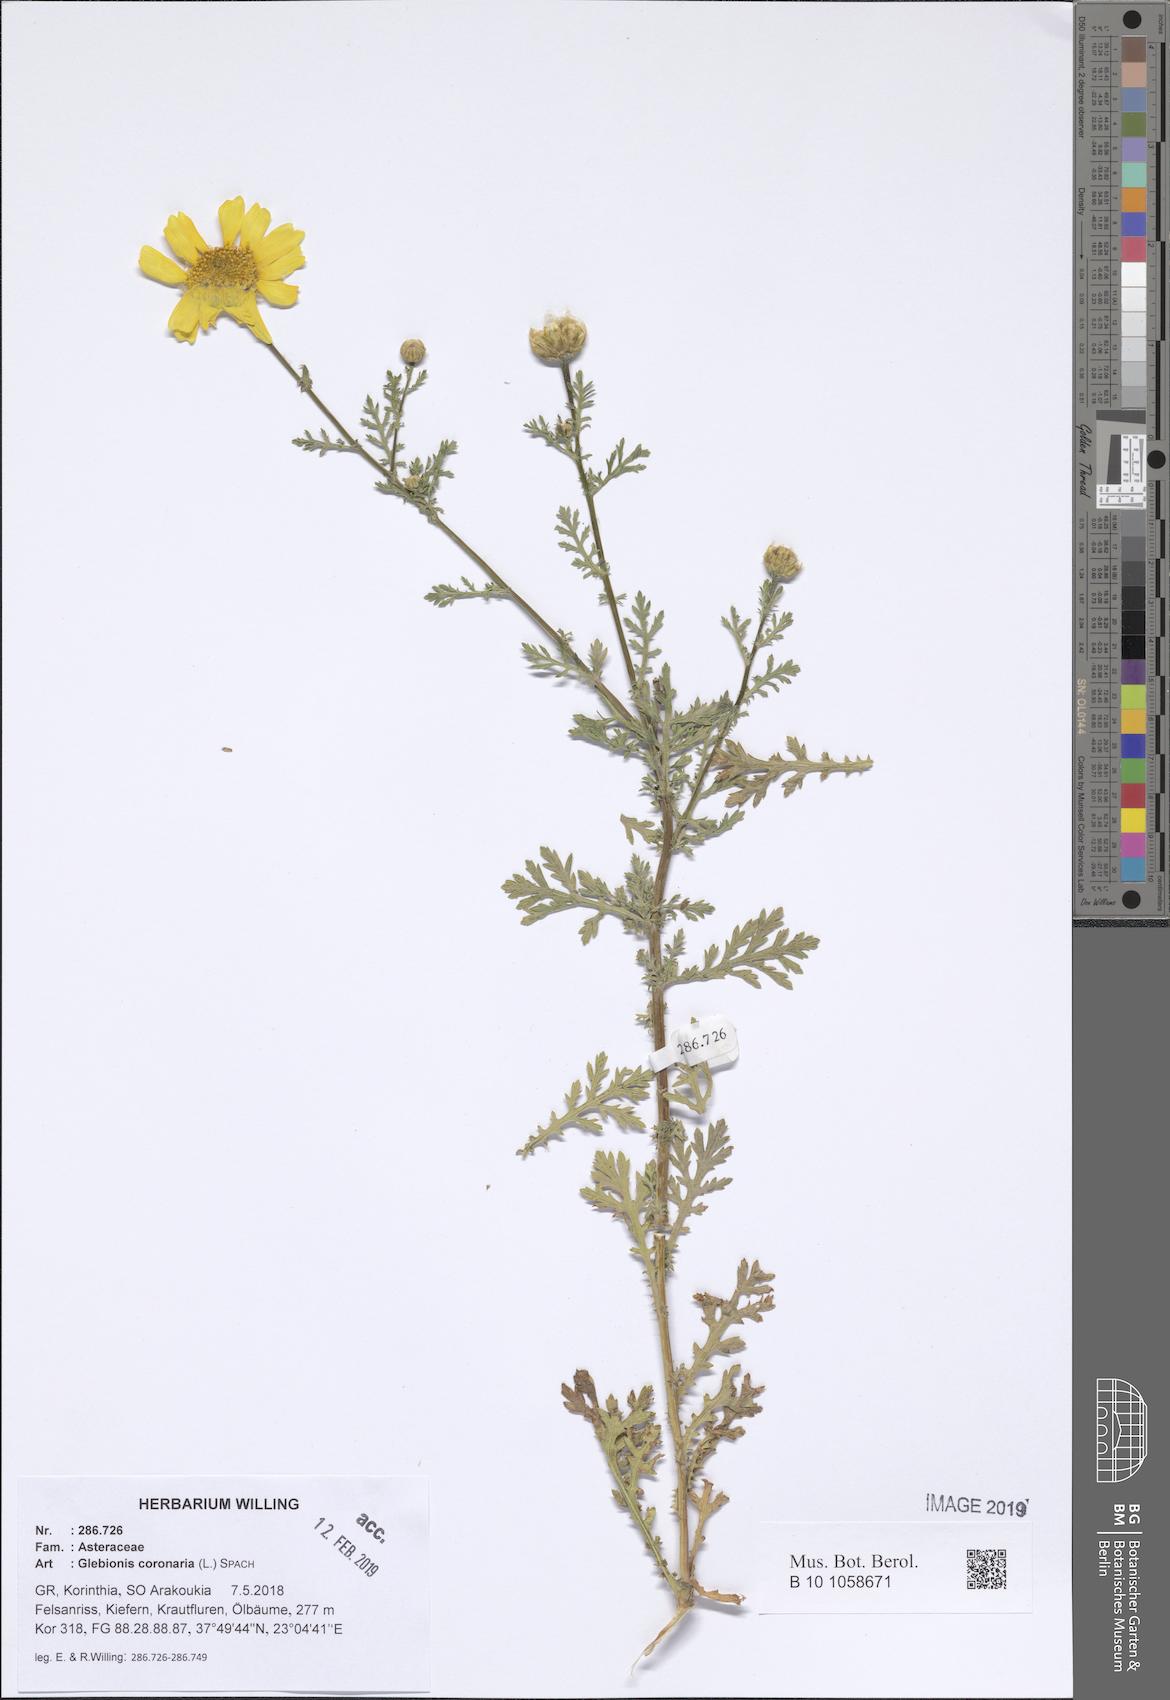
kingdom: Plantae
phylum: Tracheophyta
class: Magnoliopsida
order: Asterales
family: Asteraceae
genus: Glebionis
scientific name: Glebionis coronaria
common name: Crowndaisy
